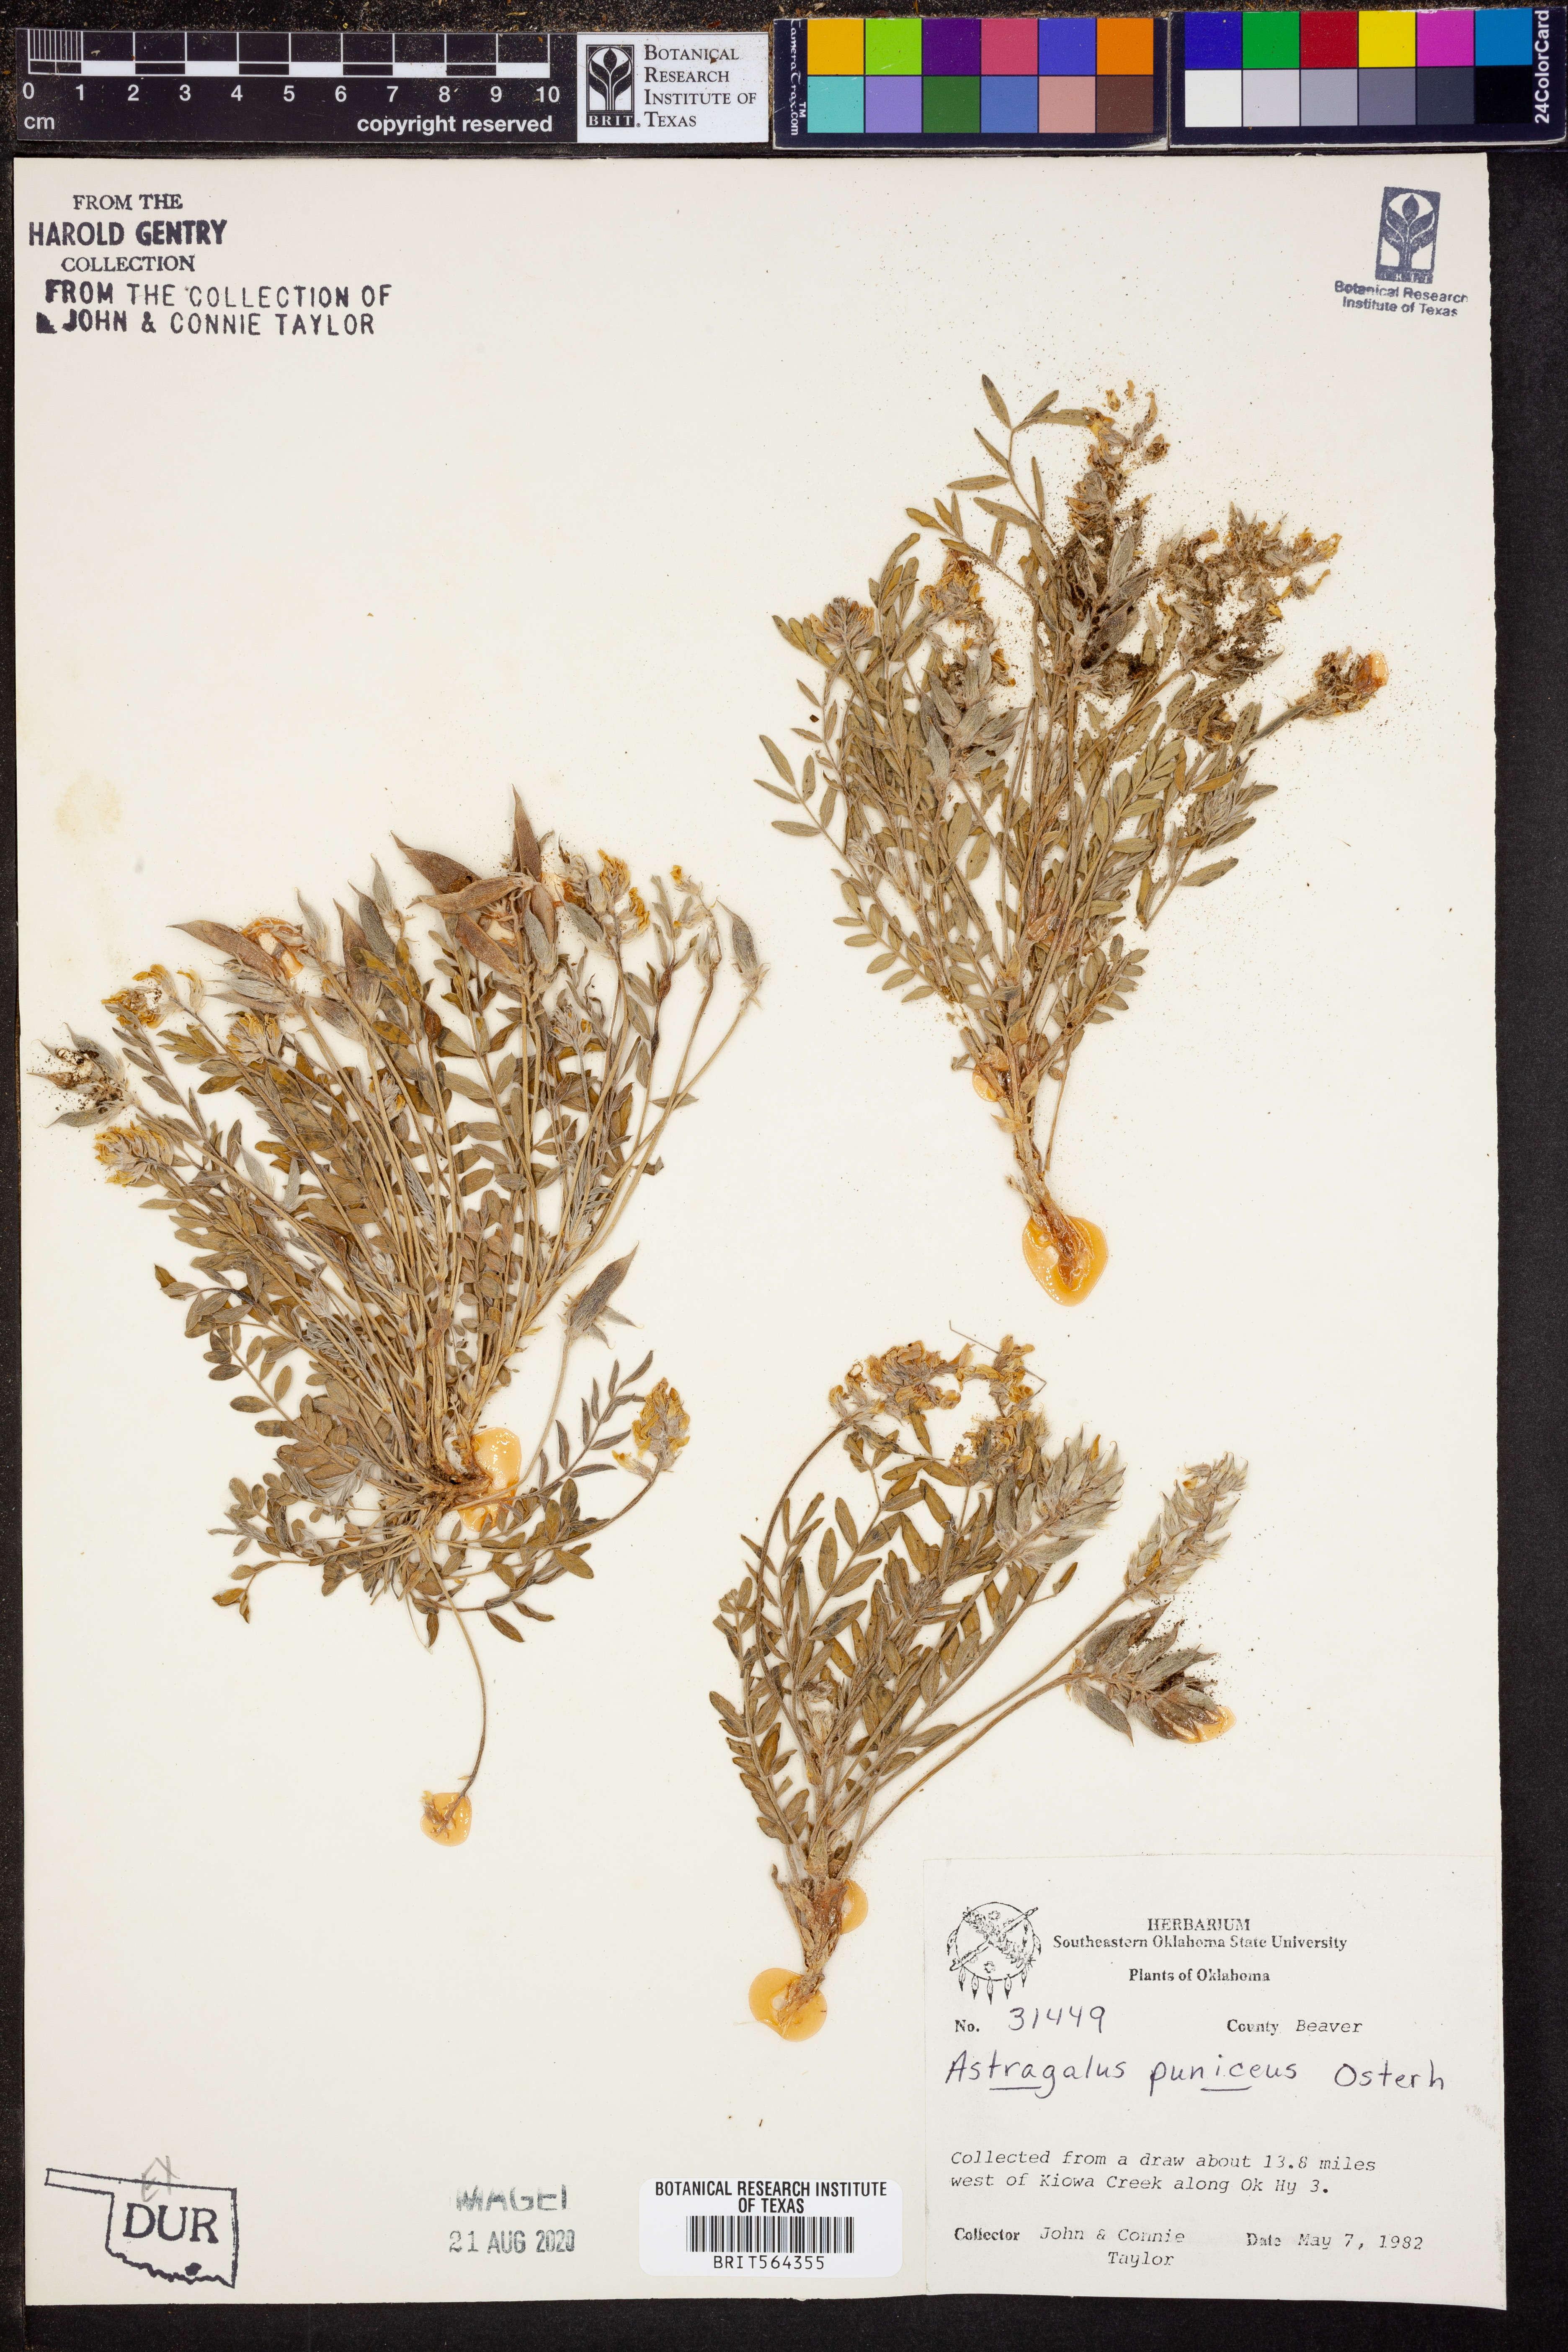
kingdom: Plantae
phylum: Tracheophyta
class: Magnoliopsida
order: Fabales
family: Fabaceae
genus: Astragalus
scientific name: Astragalus puniceus
